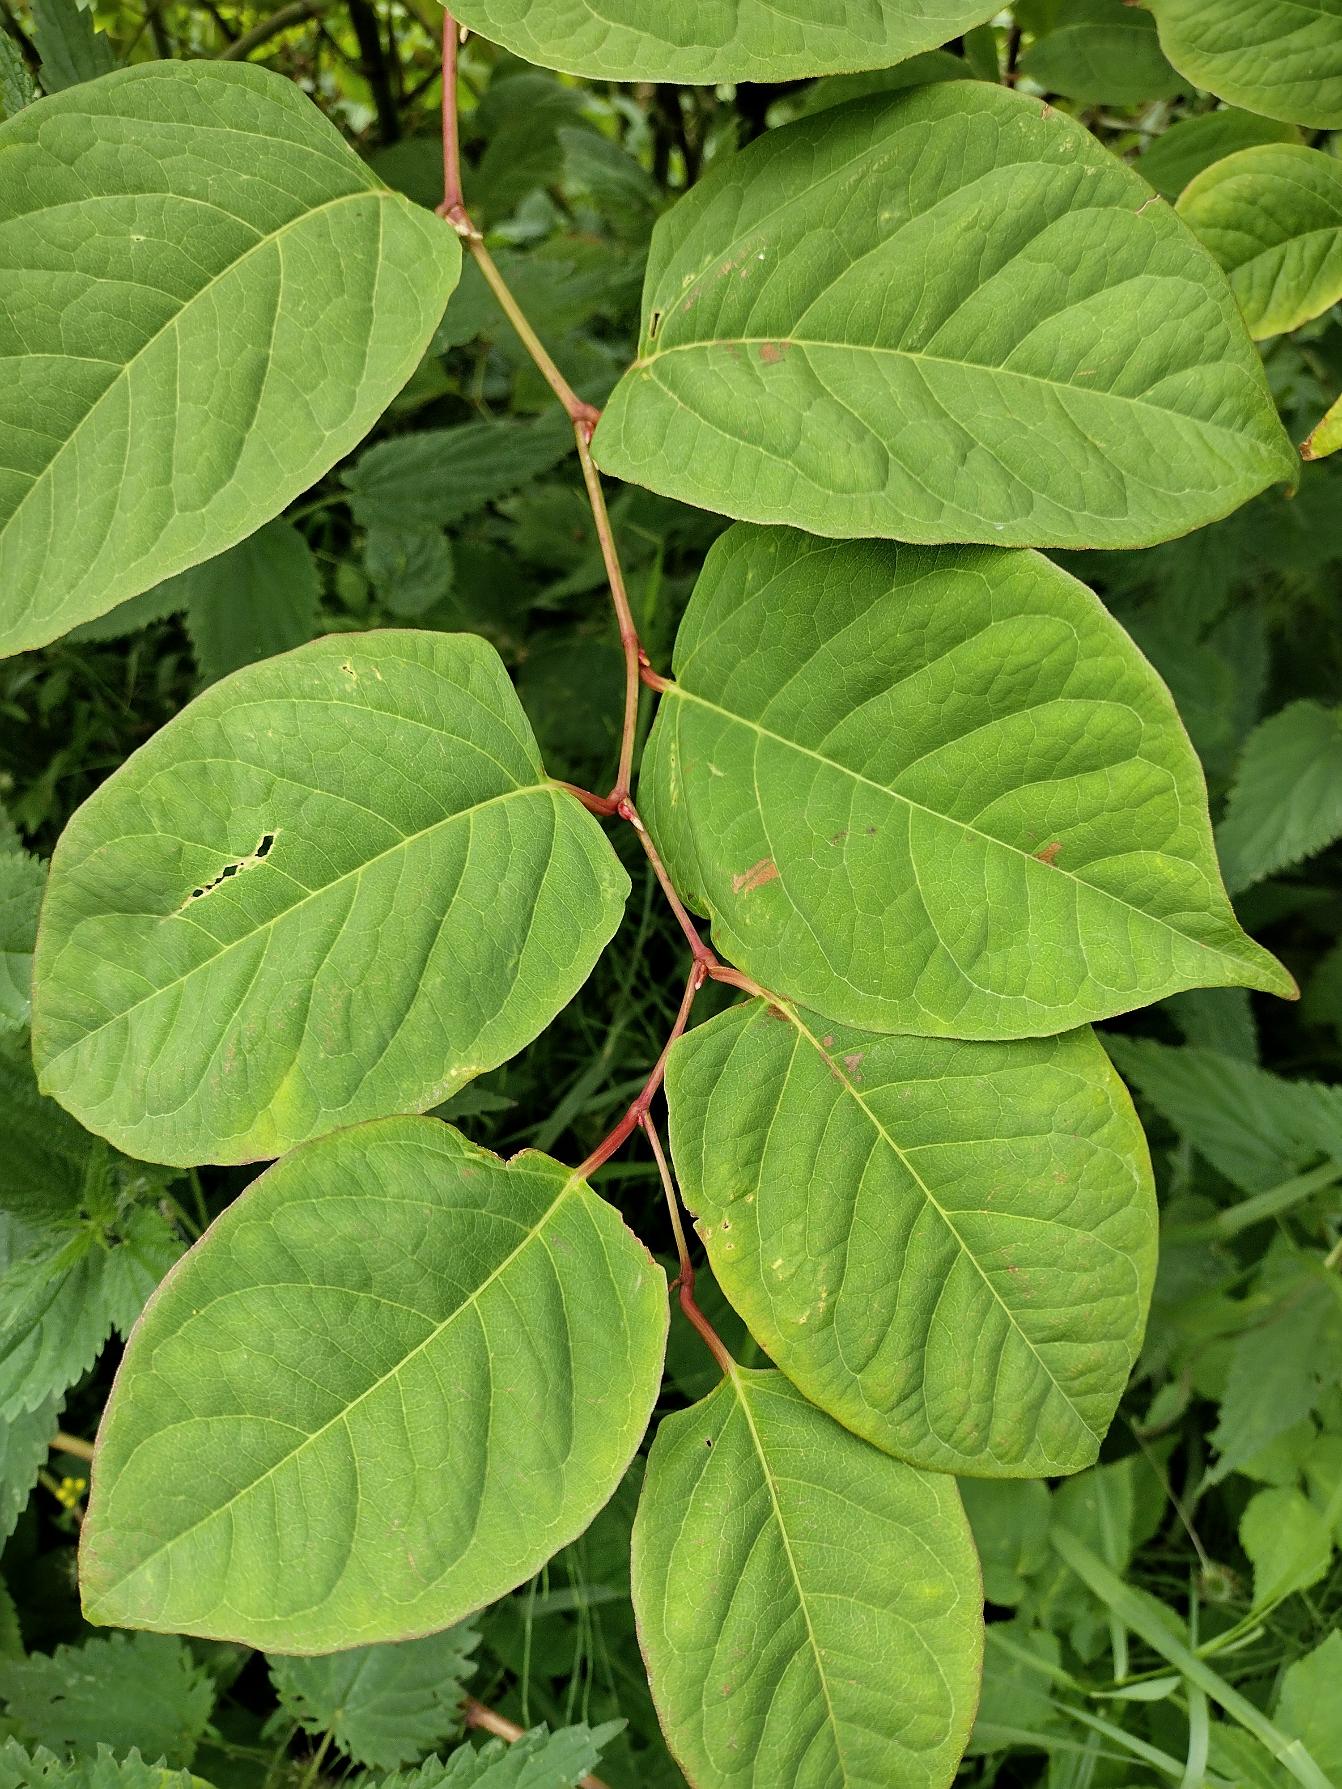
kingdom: Plantae
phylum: Tracheophyta
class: Magnoliopsida
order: Caryophyllales
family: Polygonaceae
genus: Reynoutria
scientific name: Reynoutria japonica
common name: Japan-pileurt
